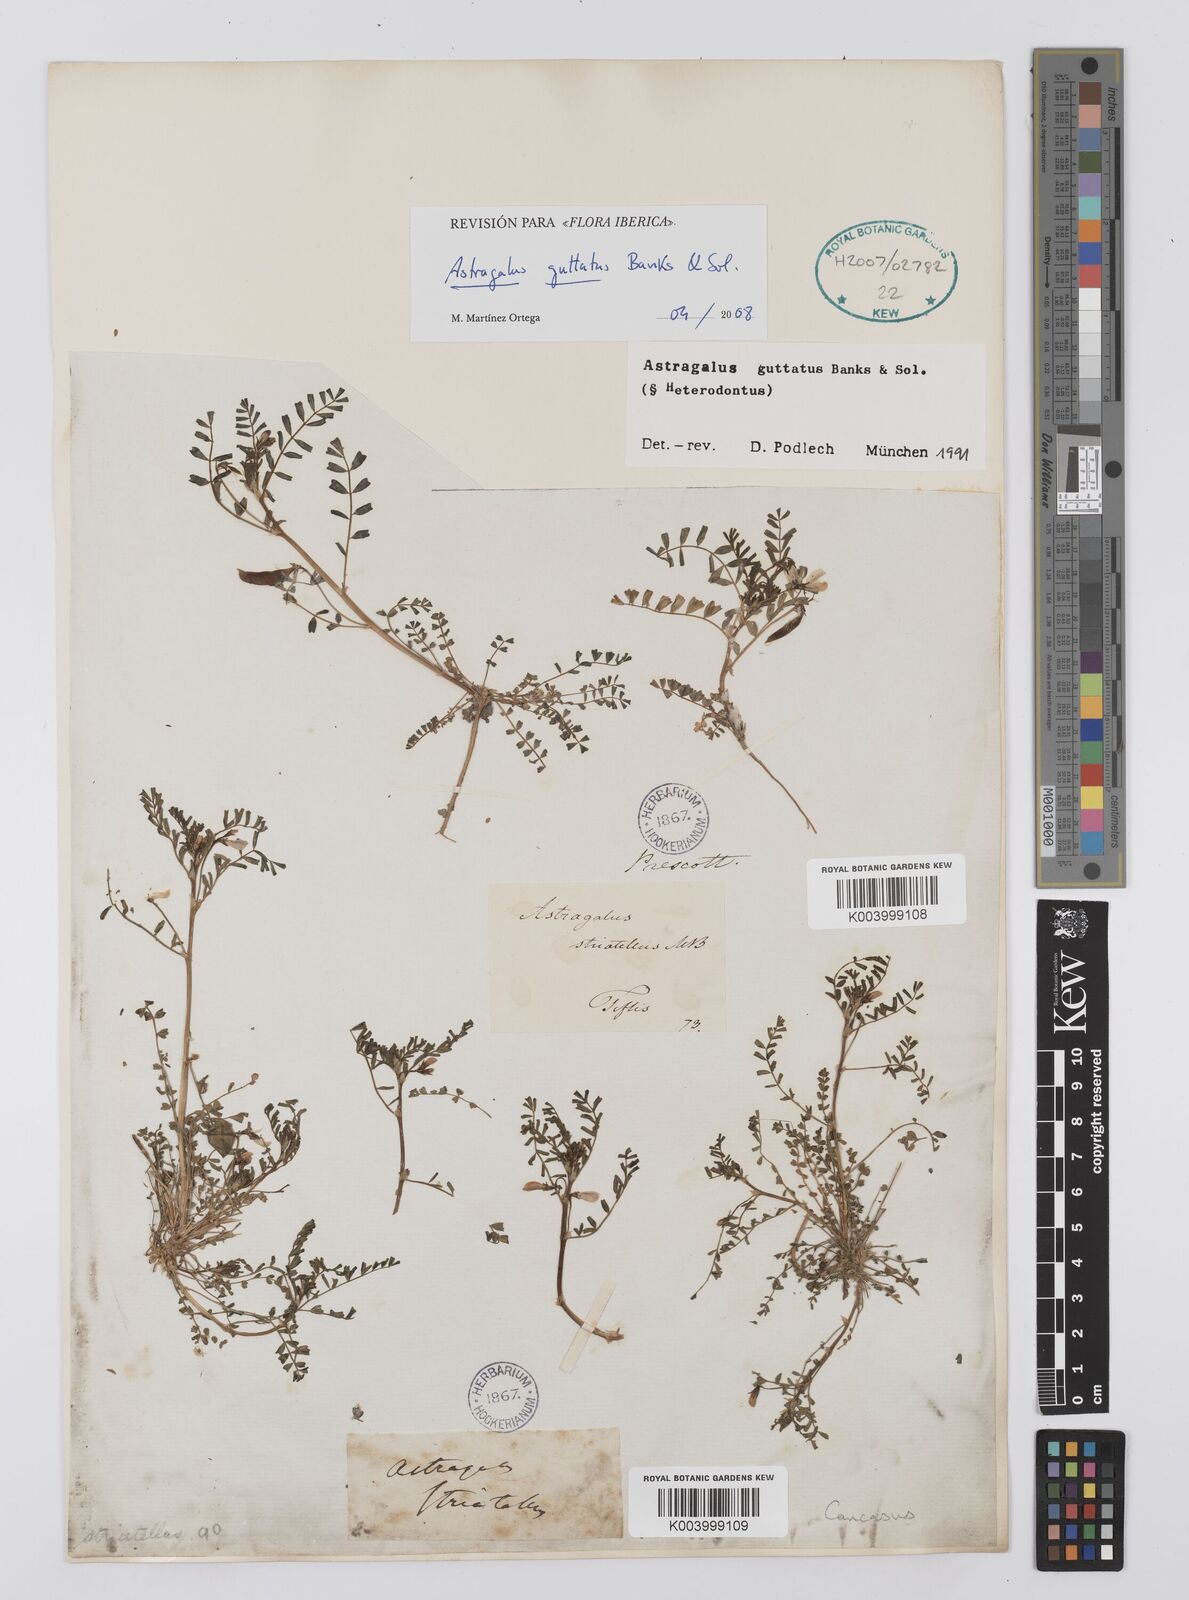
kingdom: Plantae
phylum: Tracheophyta
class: Magnoliopsida
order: Fabales
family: Fabaceae
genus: Astragalus
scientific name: Astragalus heterodontus
